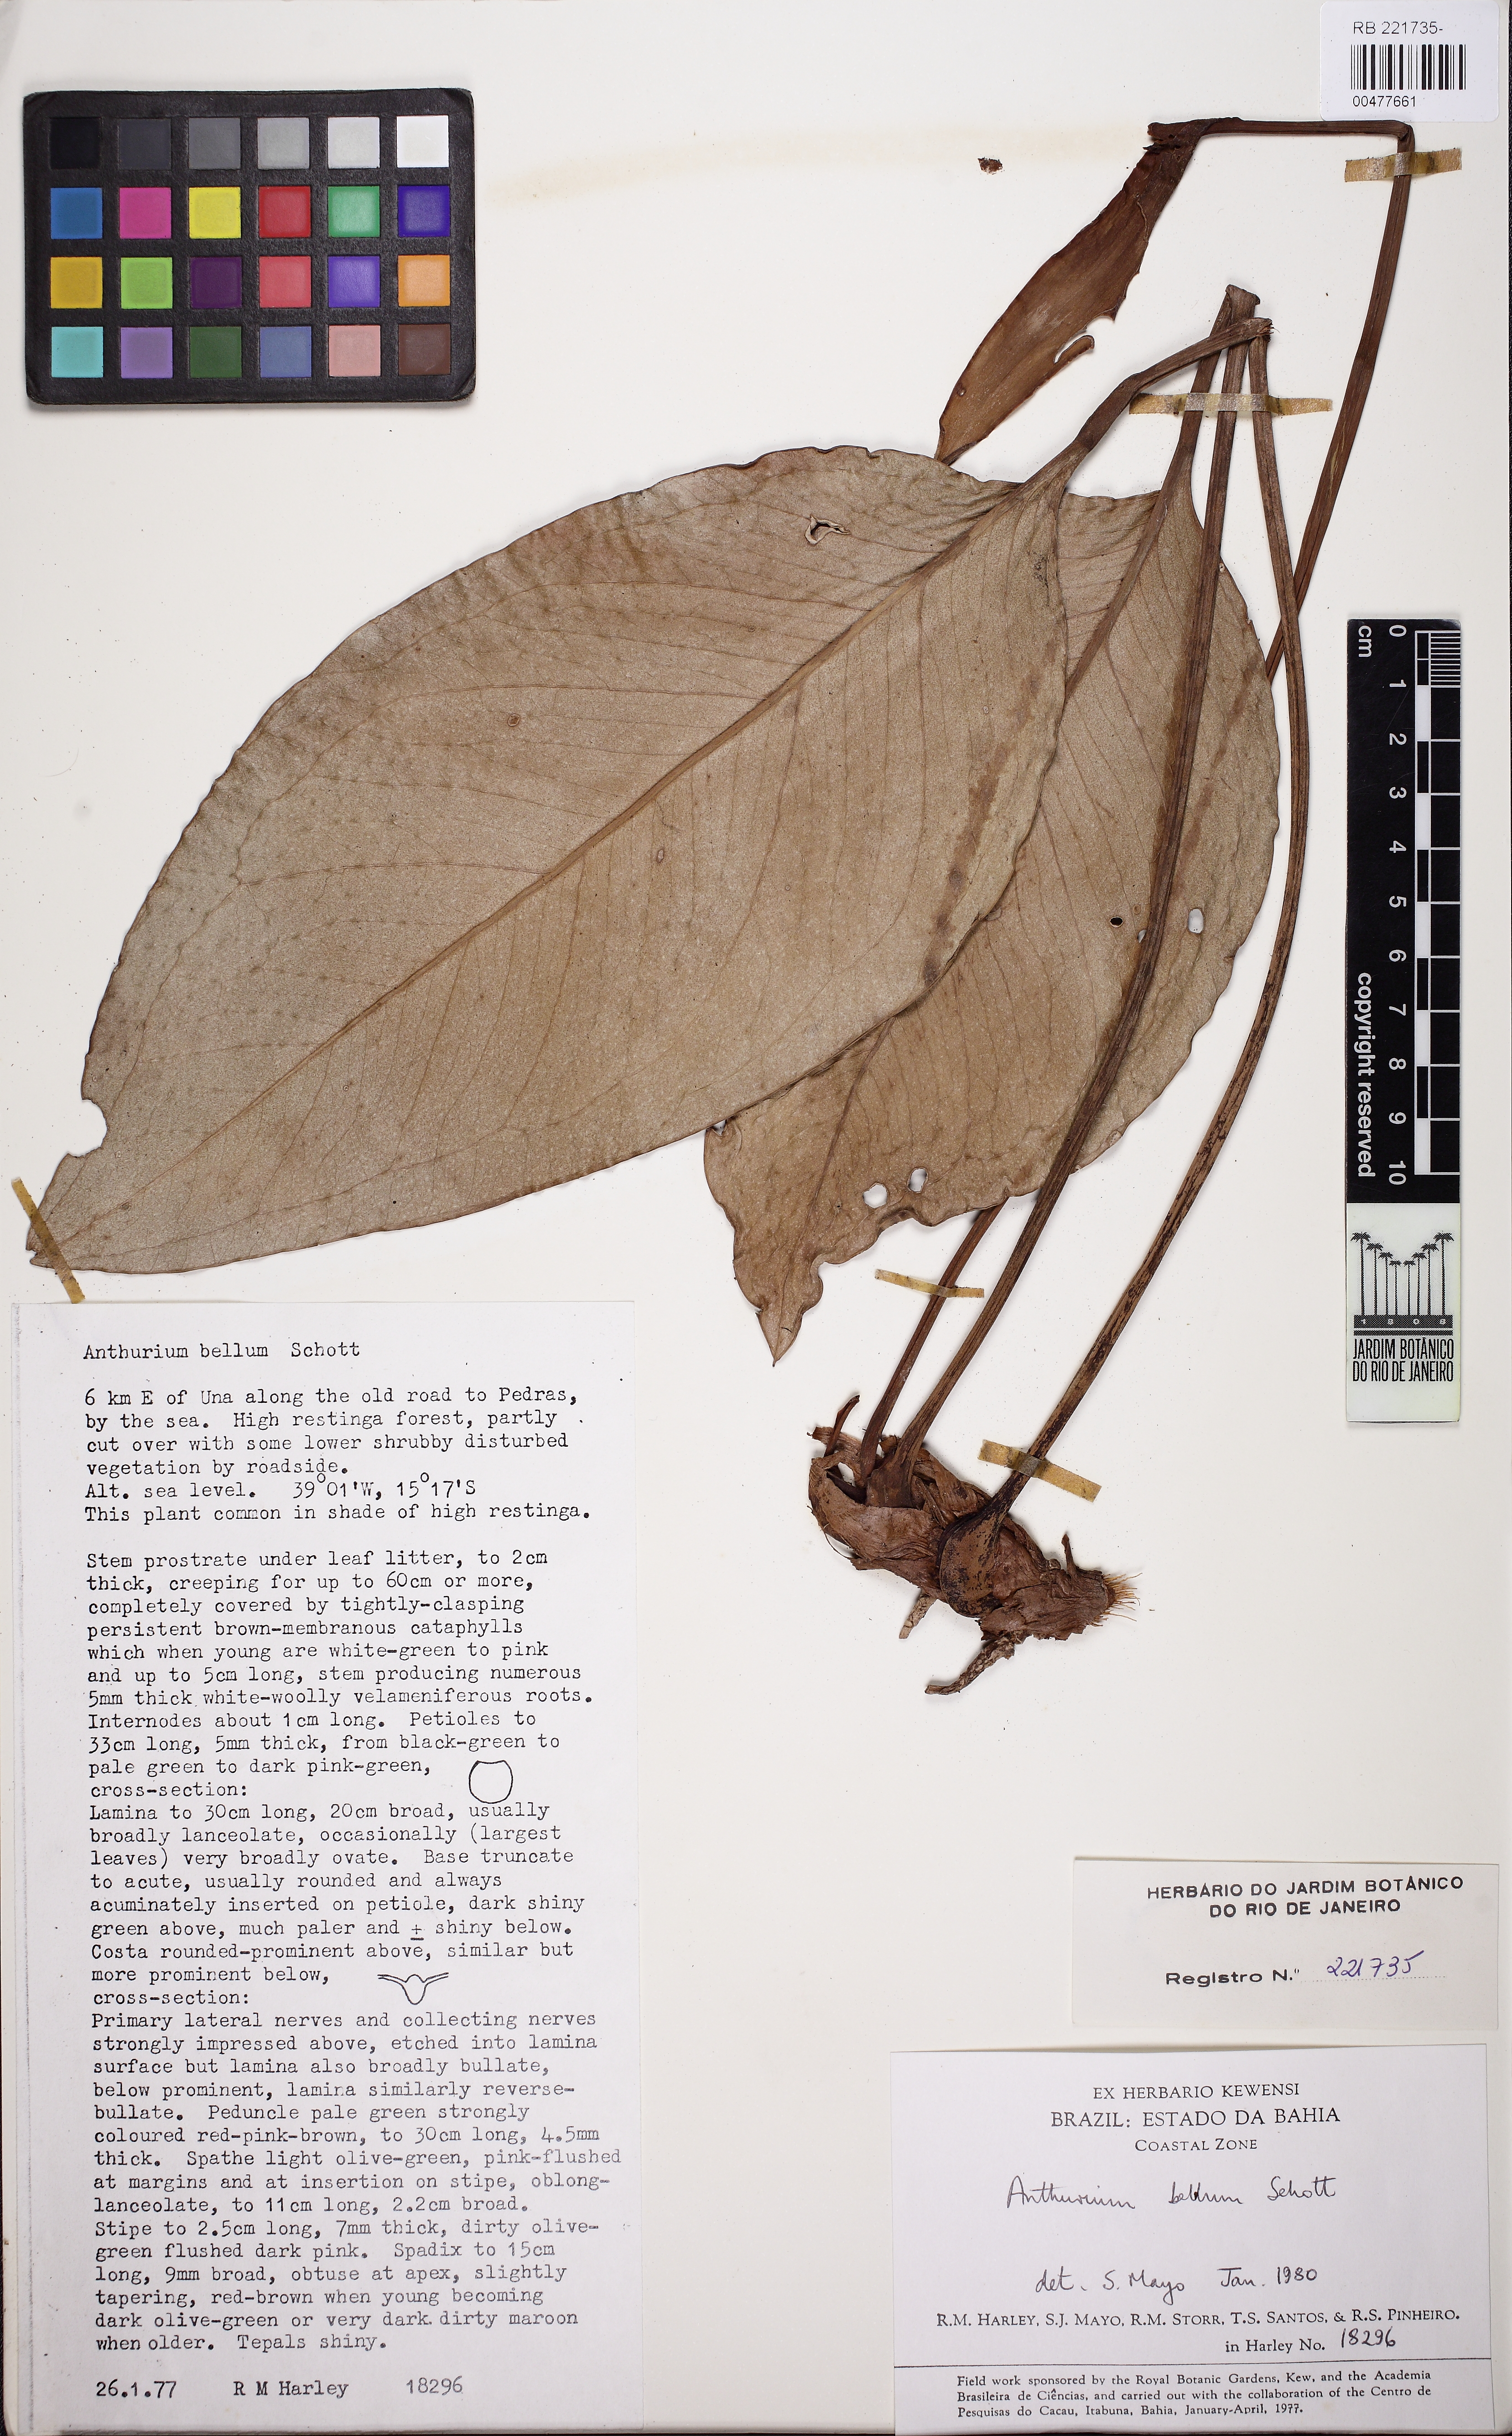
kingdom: Plantae
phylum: Tracheophyta
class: Liliopsida
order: Alismatales
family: Araceae
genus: Anthurium
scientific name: Anthurium bellum
